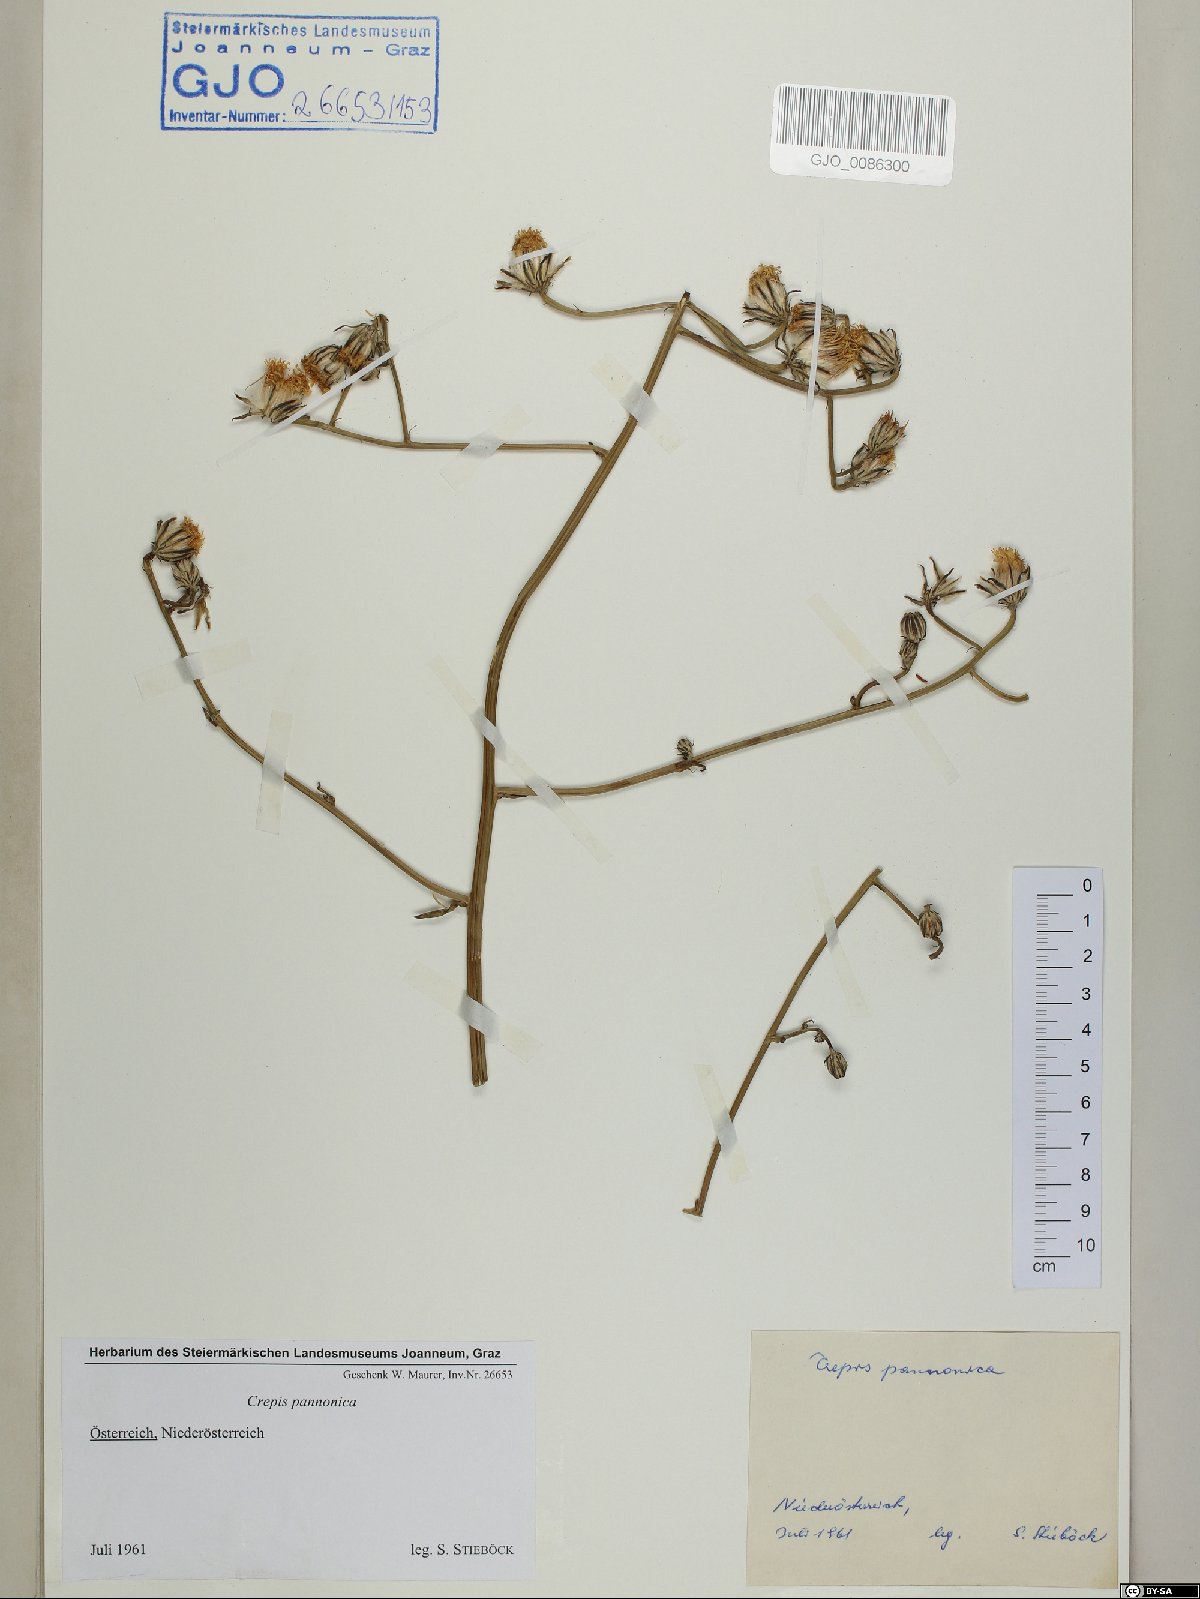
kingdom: Plantae
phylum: Tracheophyta
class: Magnoliopsida
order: Asterales
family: Asteraceae
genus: Crepis
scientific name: Crepis pannonica
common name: Pasture hawksbeard
